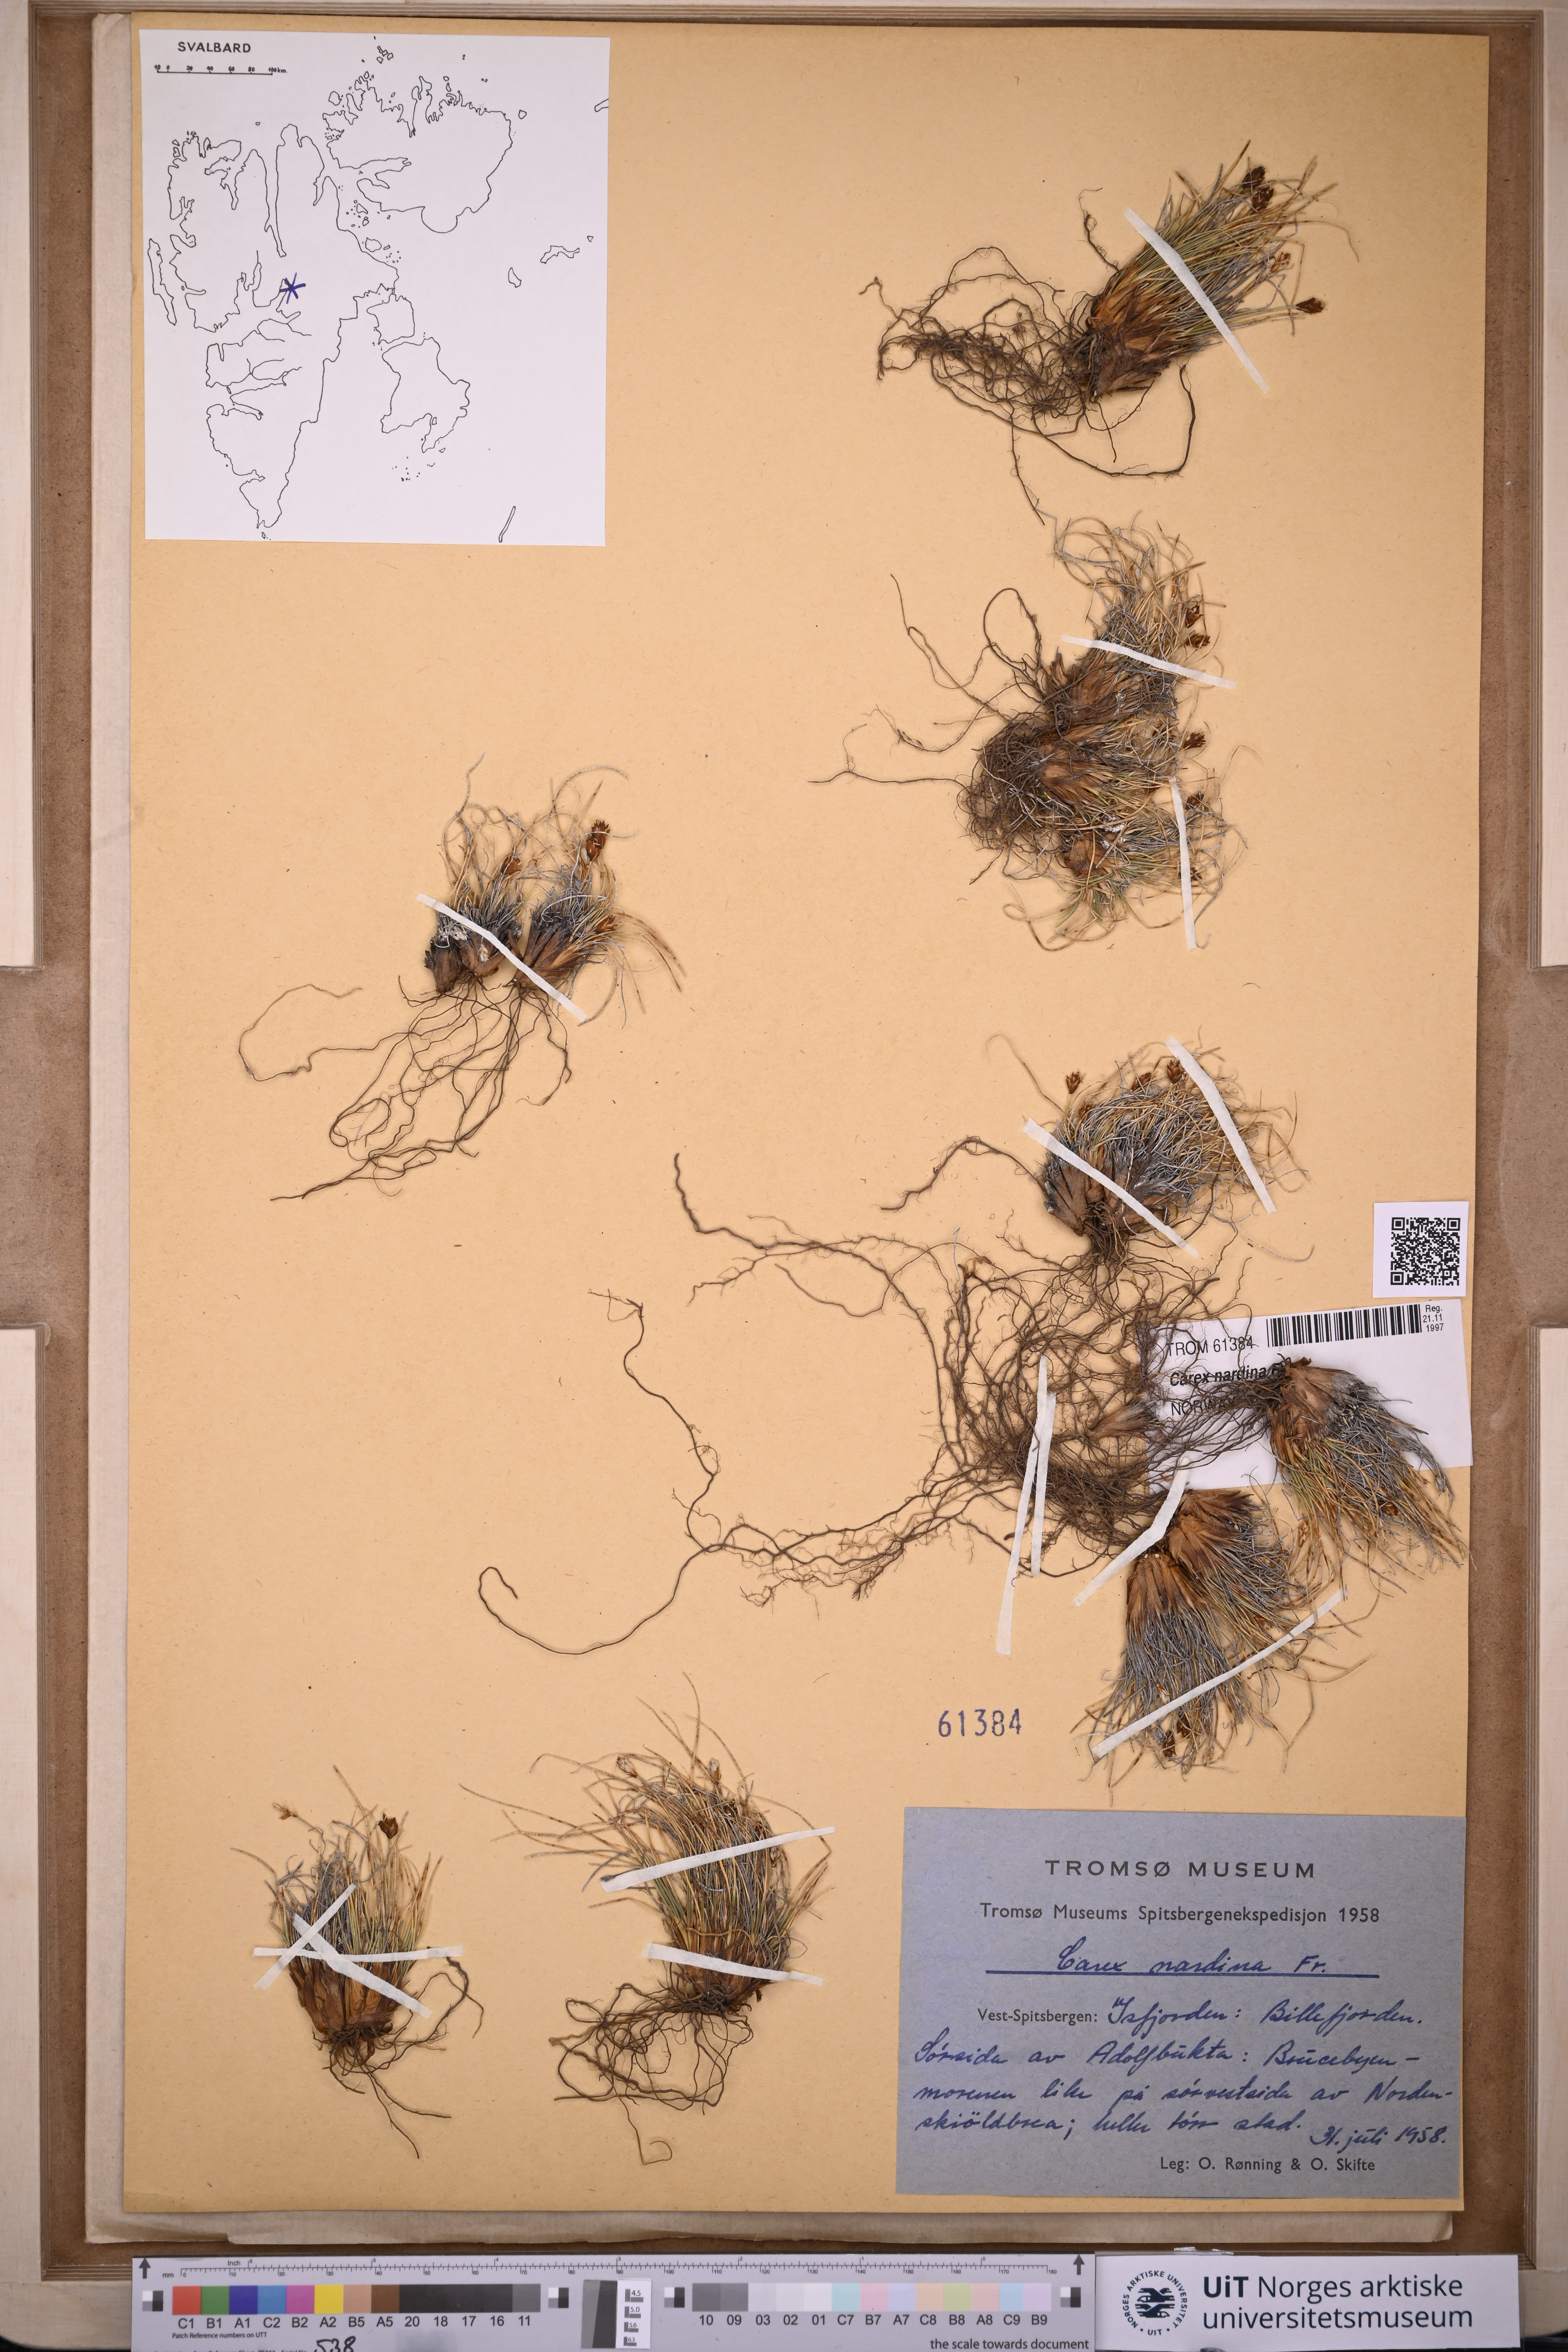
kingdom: Plantae
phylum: Tracheophyta
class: Liliopsida
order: Poales
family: Cyperaceae
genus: Carex
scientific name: Carex nardina
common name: Nard sedge
